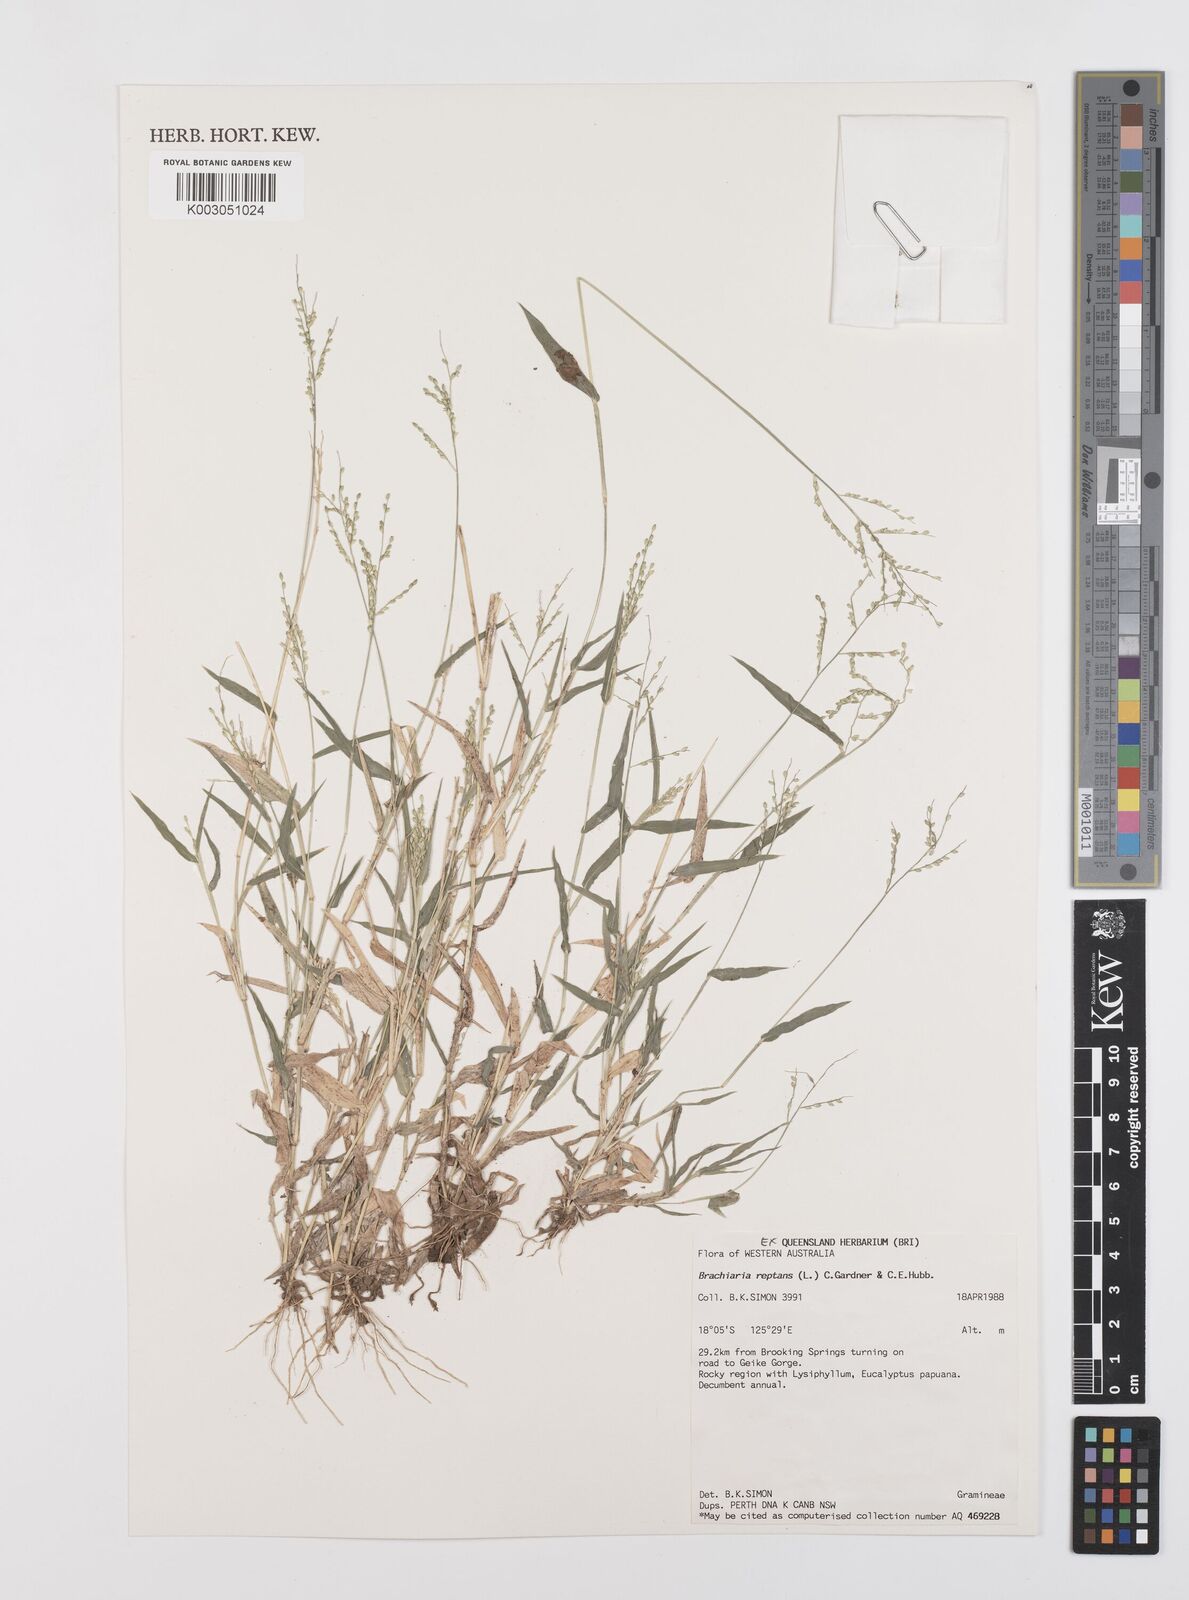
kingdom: Plantae
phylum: Tracheophyta
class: Liliopsida
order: Poales
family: Poaceae
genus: Urochloa
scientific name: Urochloa reptans
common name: Sprawling signalgrass
